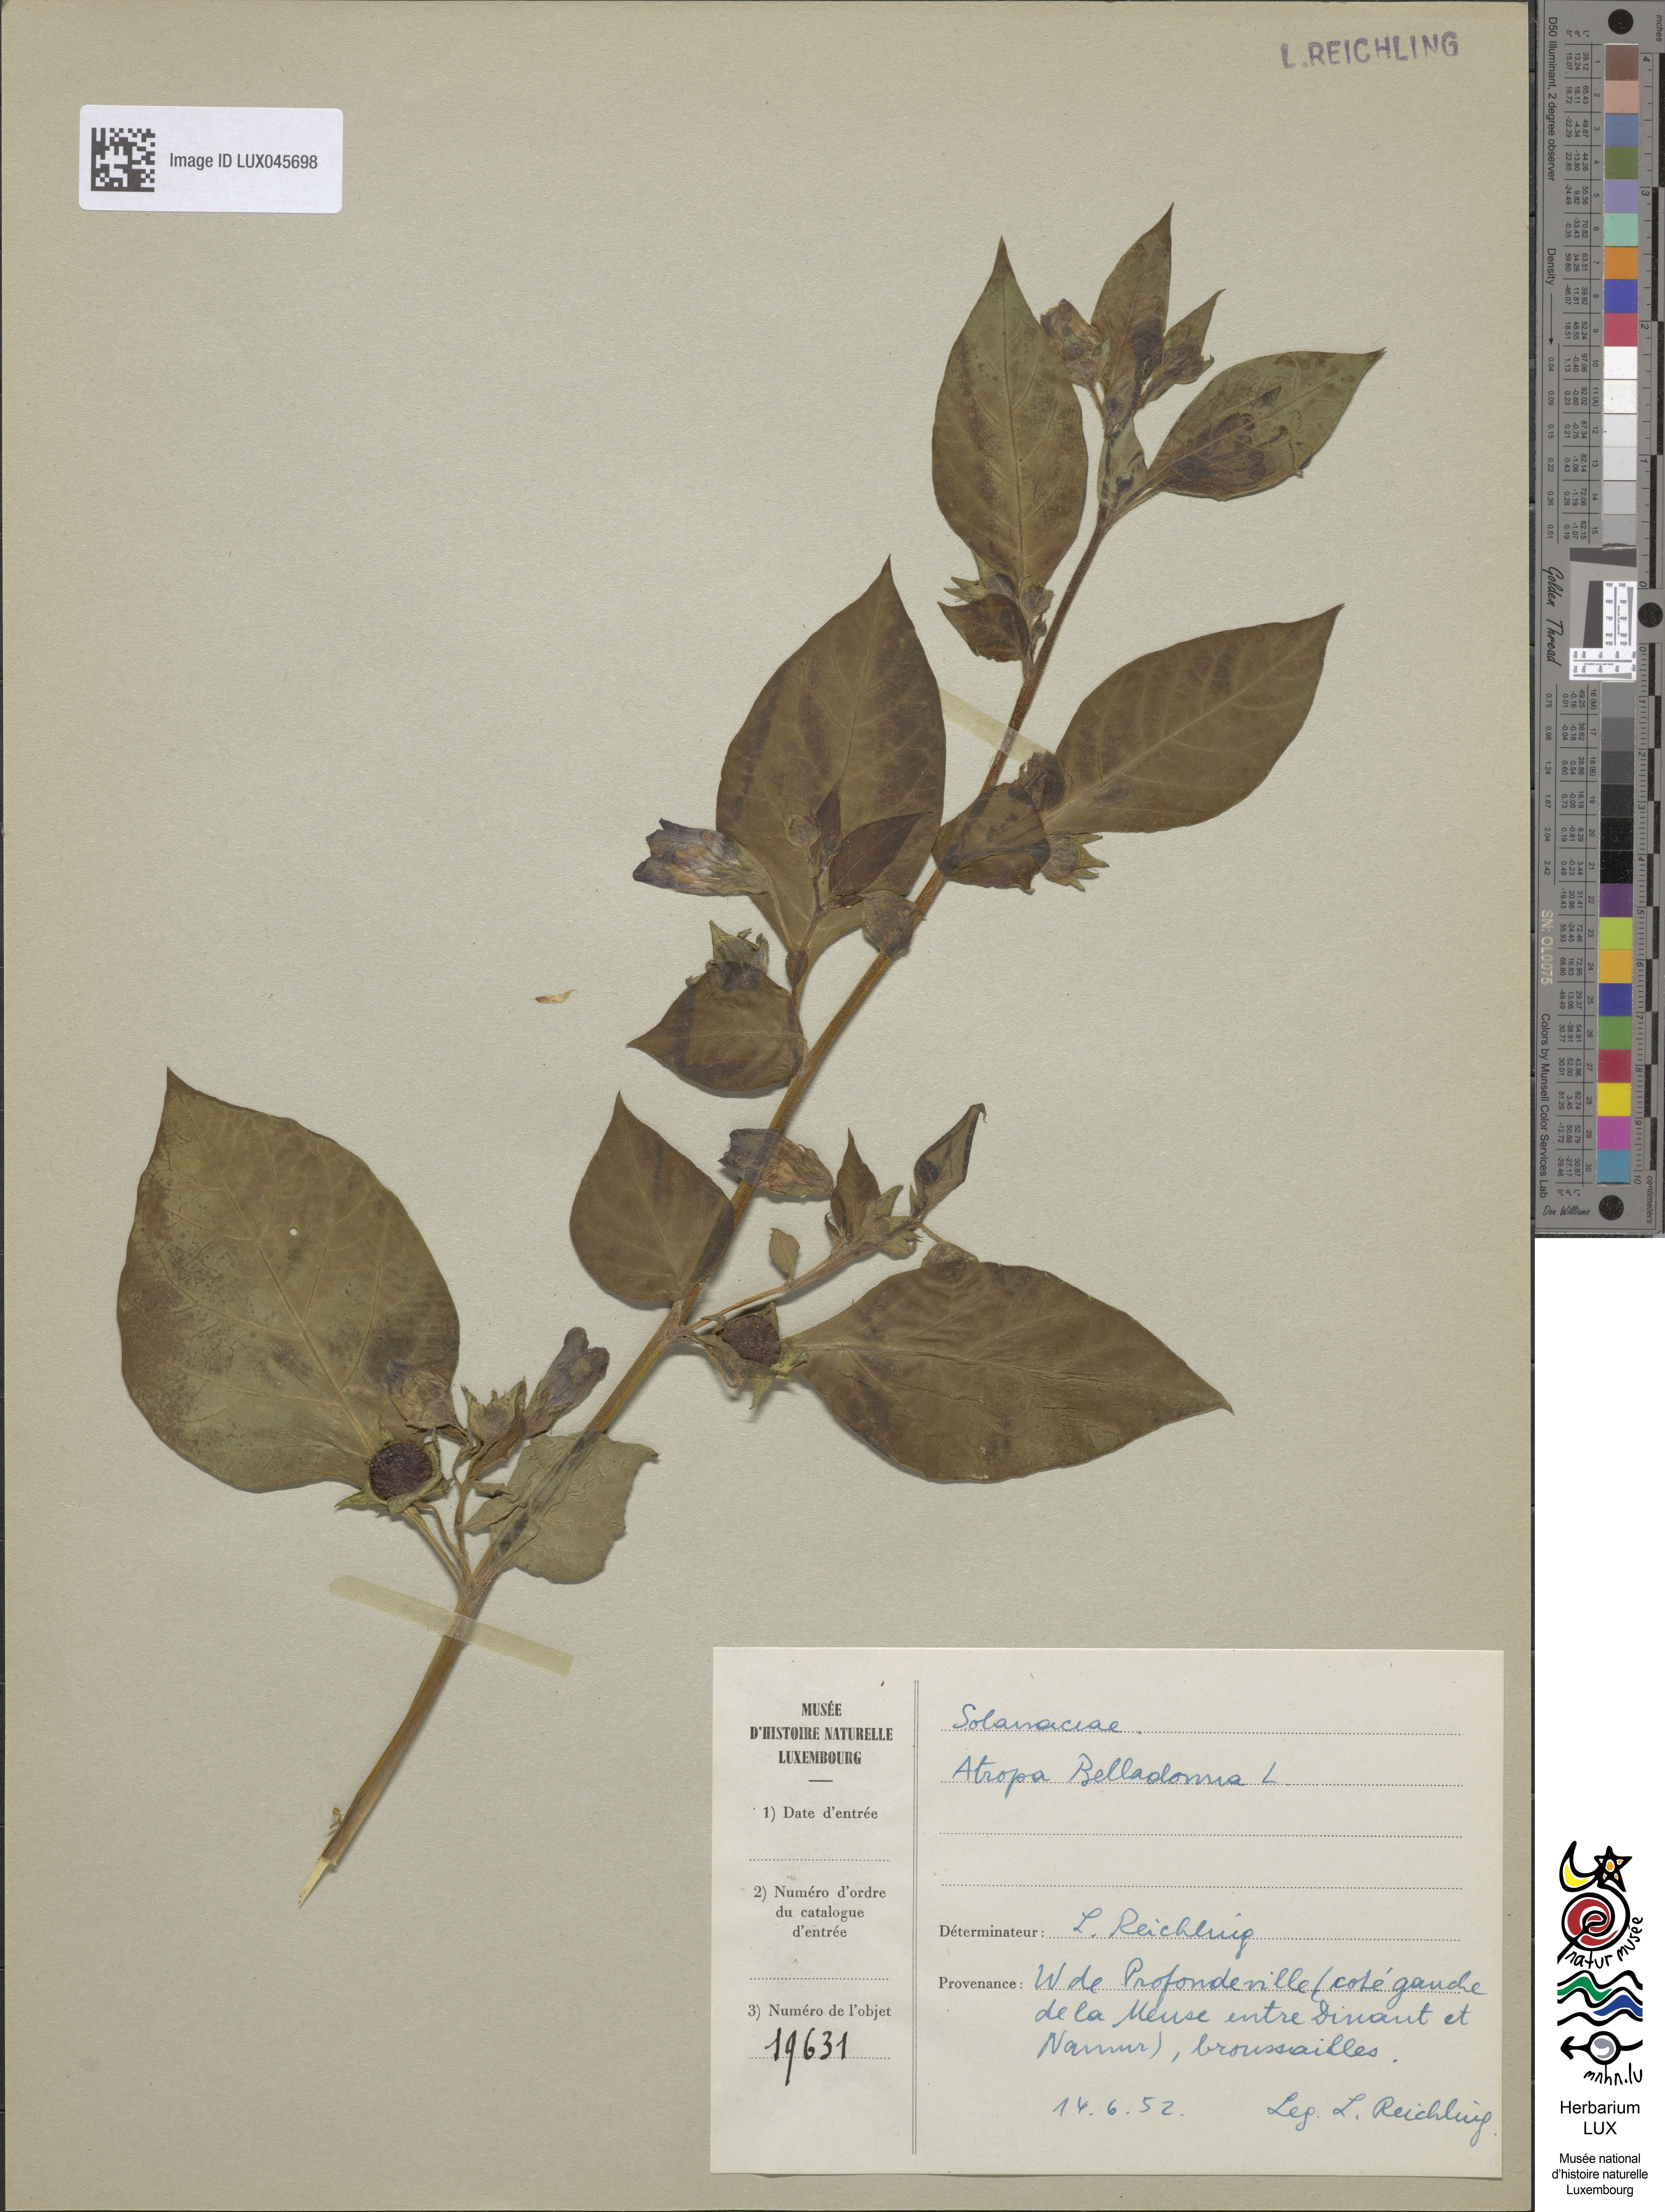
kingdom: Plantae
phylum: Tracheophyta
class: Magnoliopsida
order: Solanales
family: Solanaceae
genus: Atropa
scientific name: Atropa belladonna
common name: Deadly nightshade
